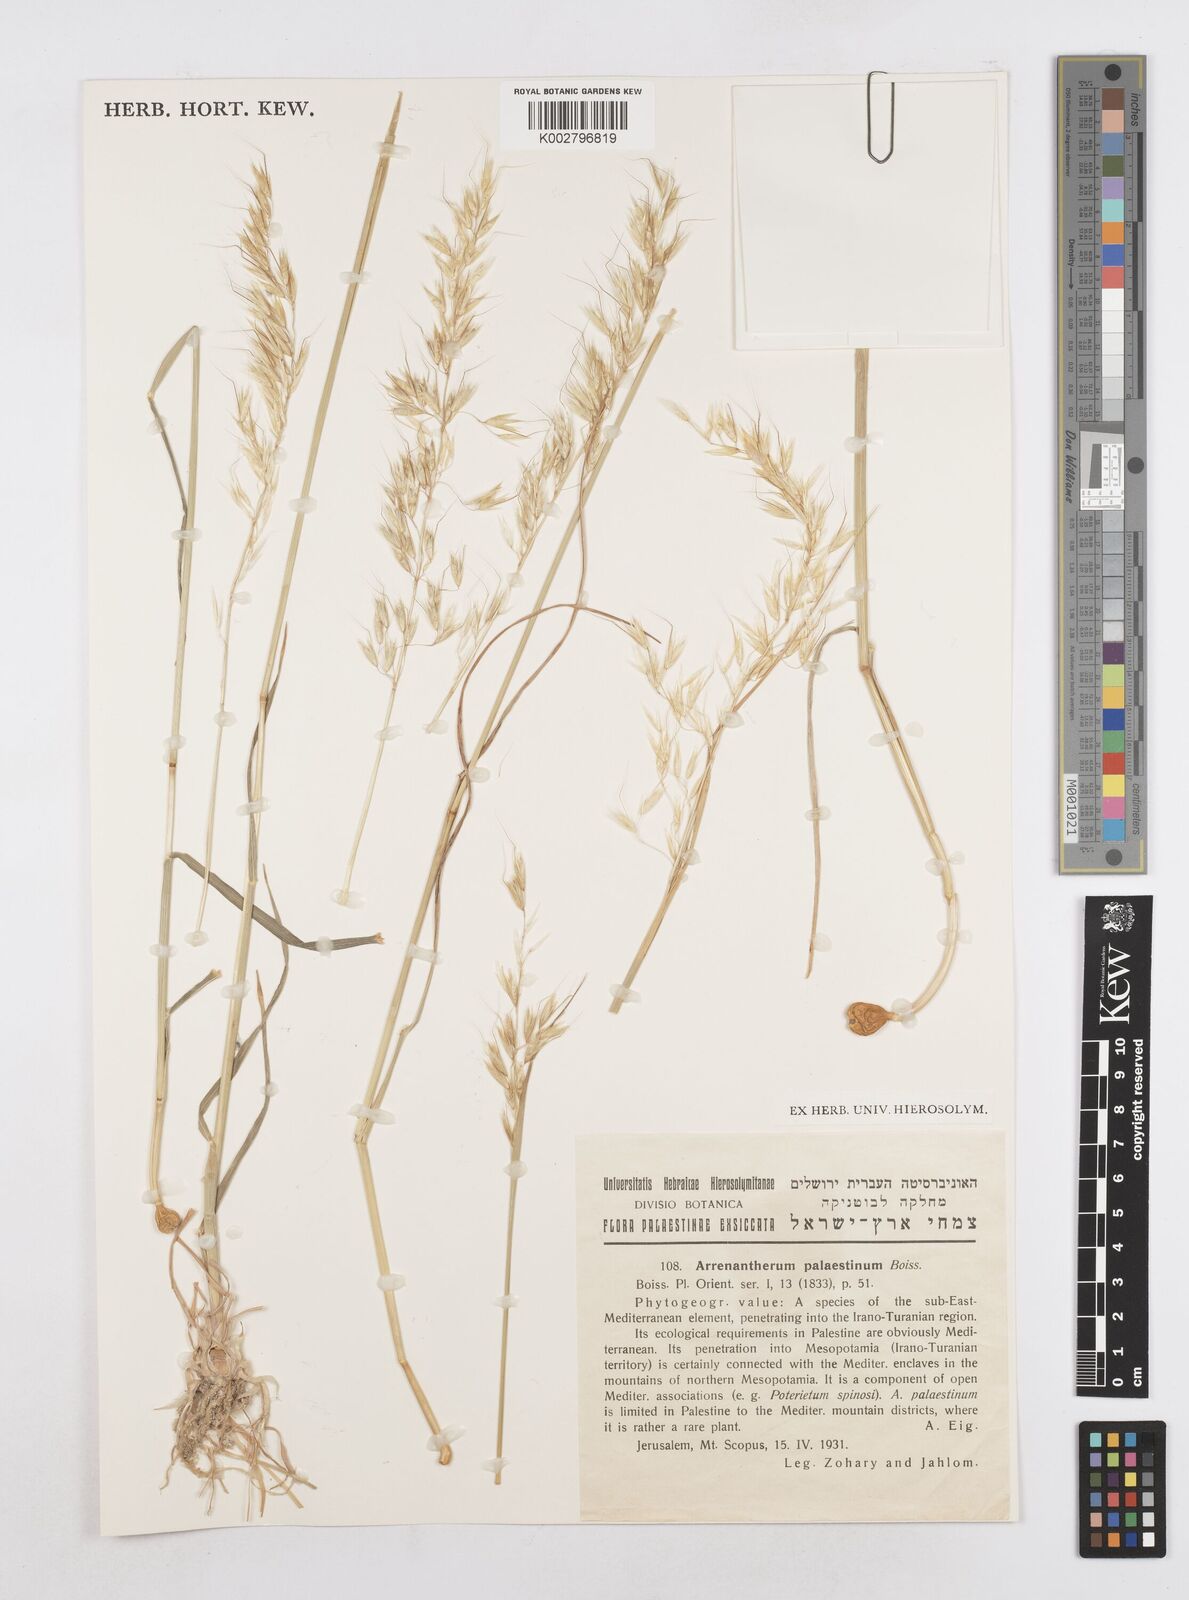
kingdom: Plantae
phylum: Tracheophyta
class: Liliopsida
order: Poales
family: Poaceae
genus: Arrhenatherum
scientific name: Arrhenatherum palaestinum
